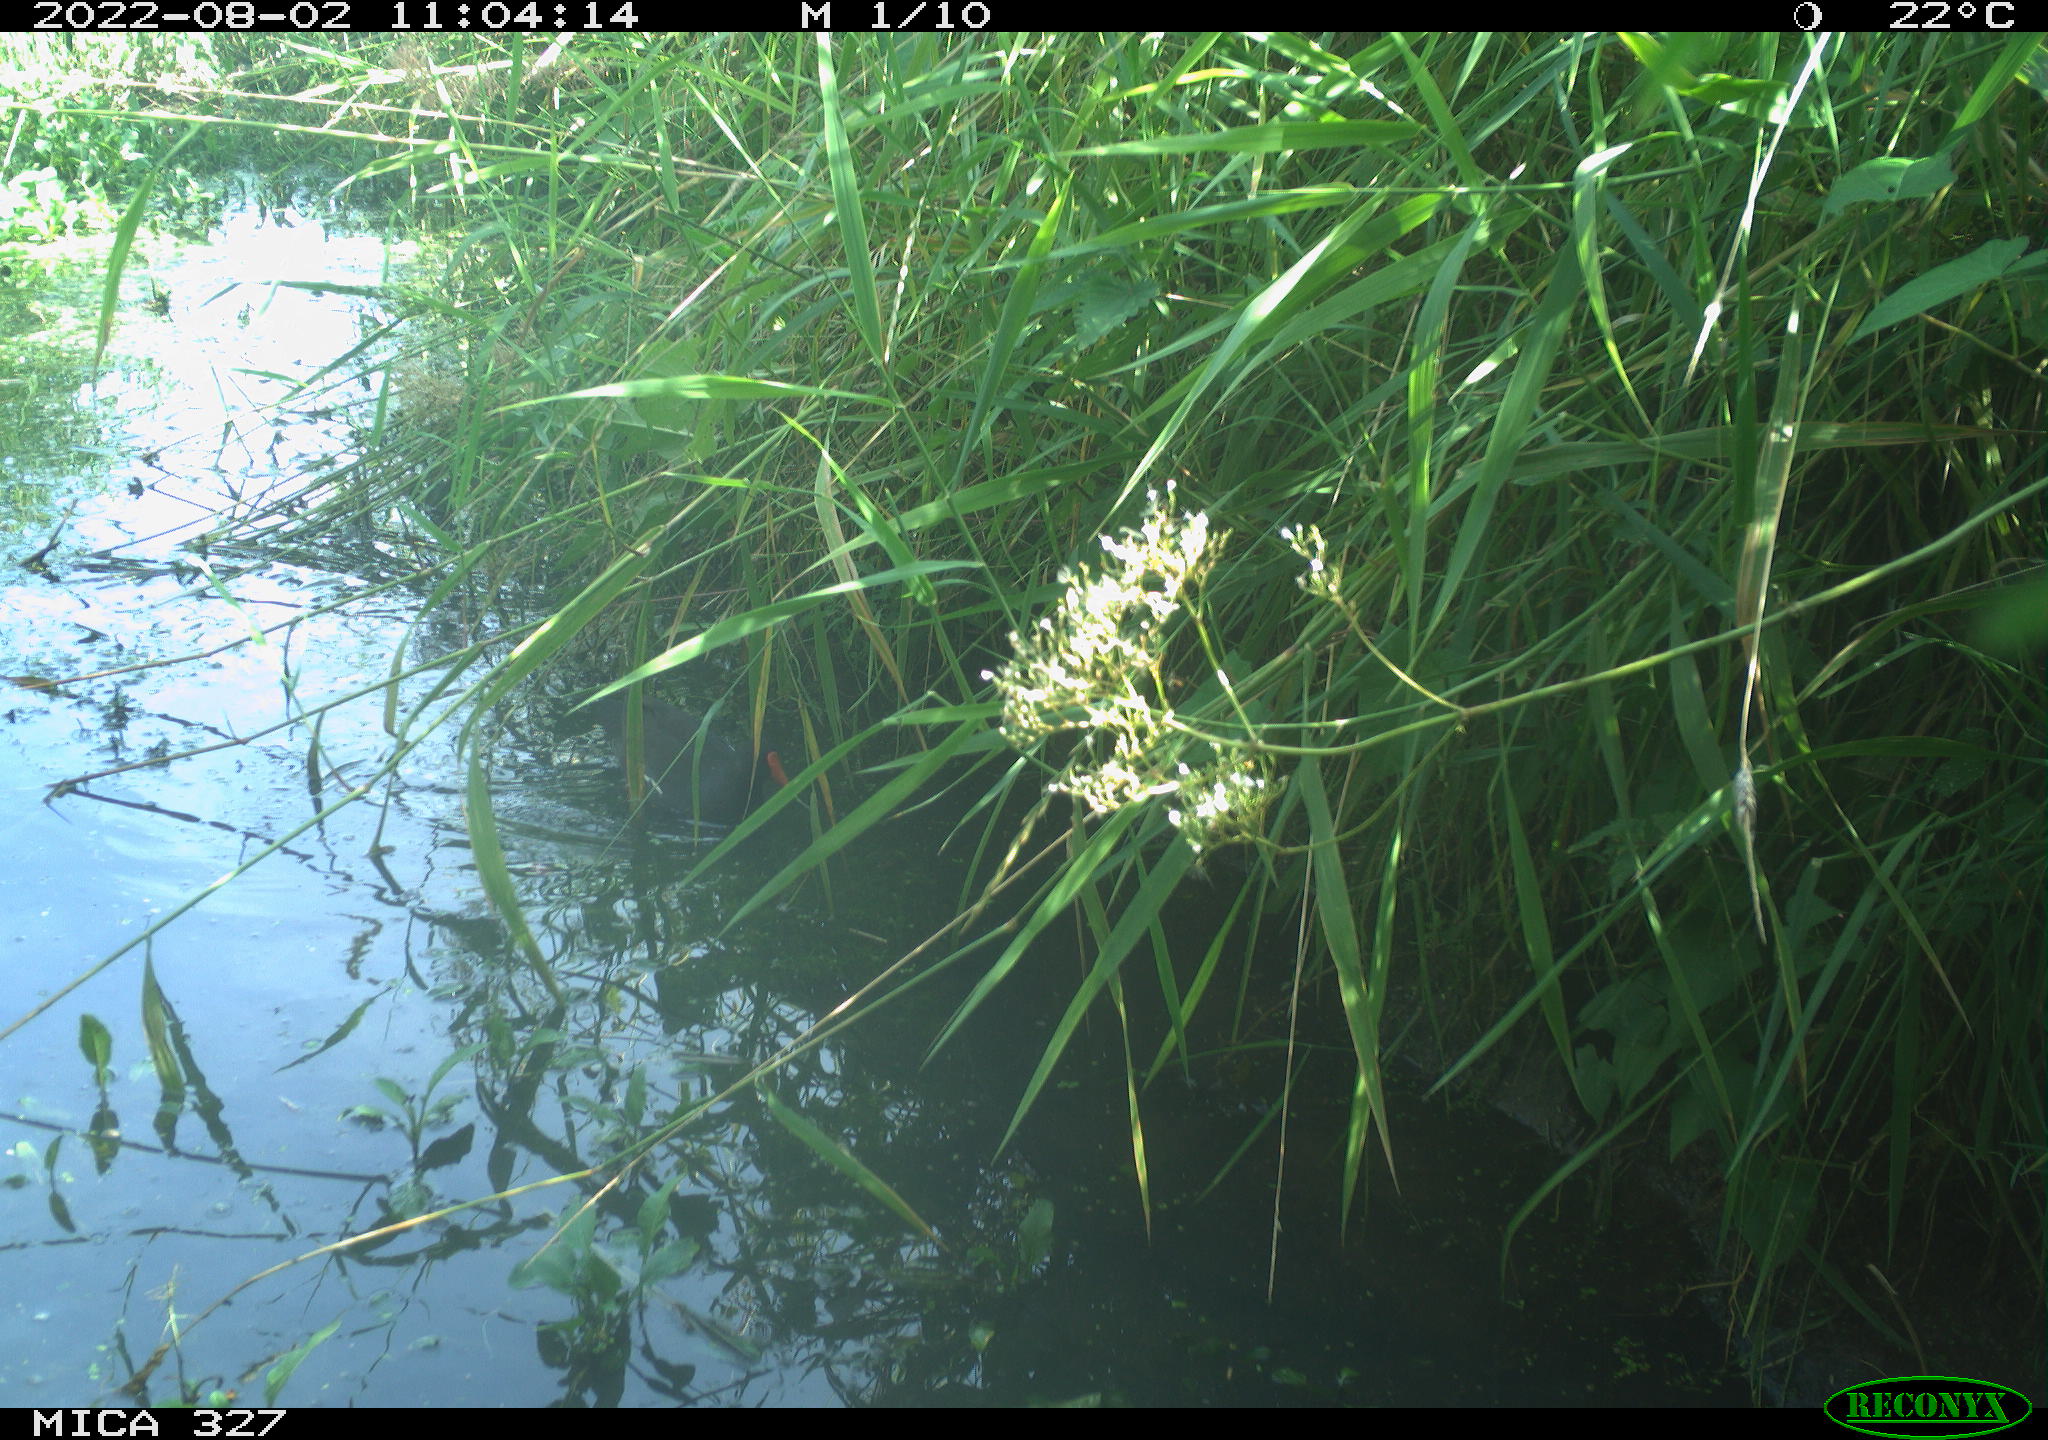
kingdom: Animalia
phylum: Chordata
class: Aves
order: Gruiformes
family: Rallidae
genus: Gallinula
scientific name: Gallinula chloropus
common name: Common moorhen
